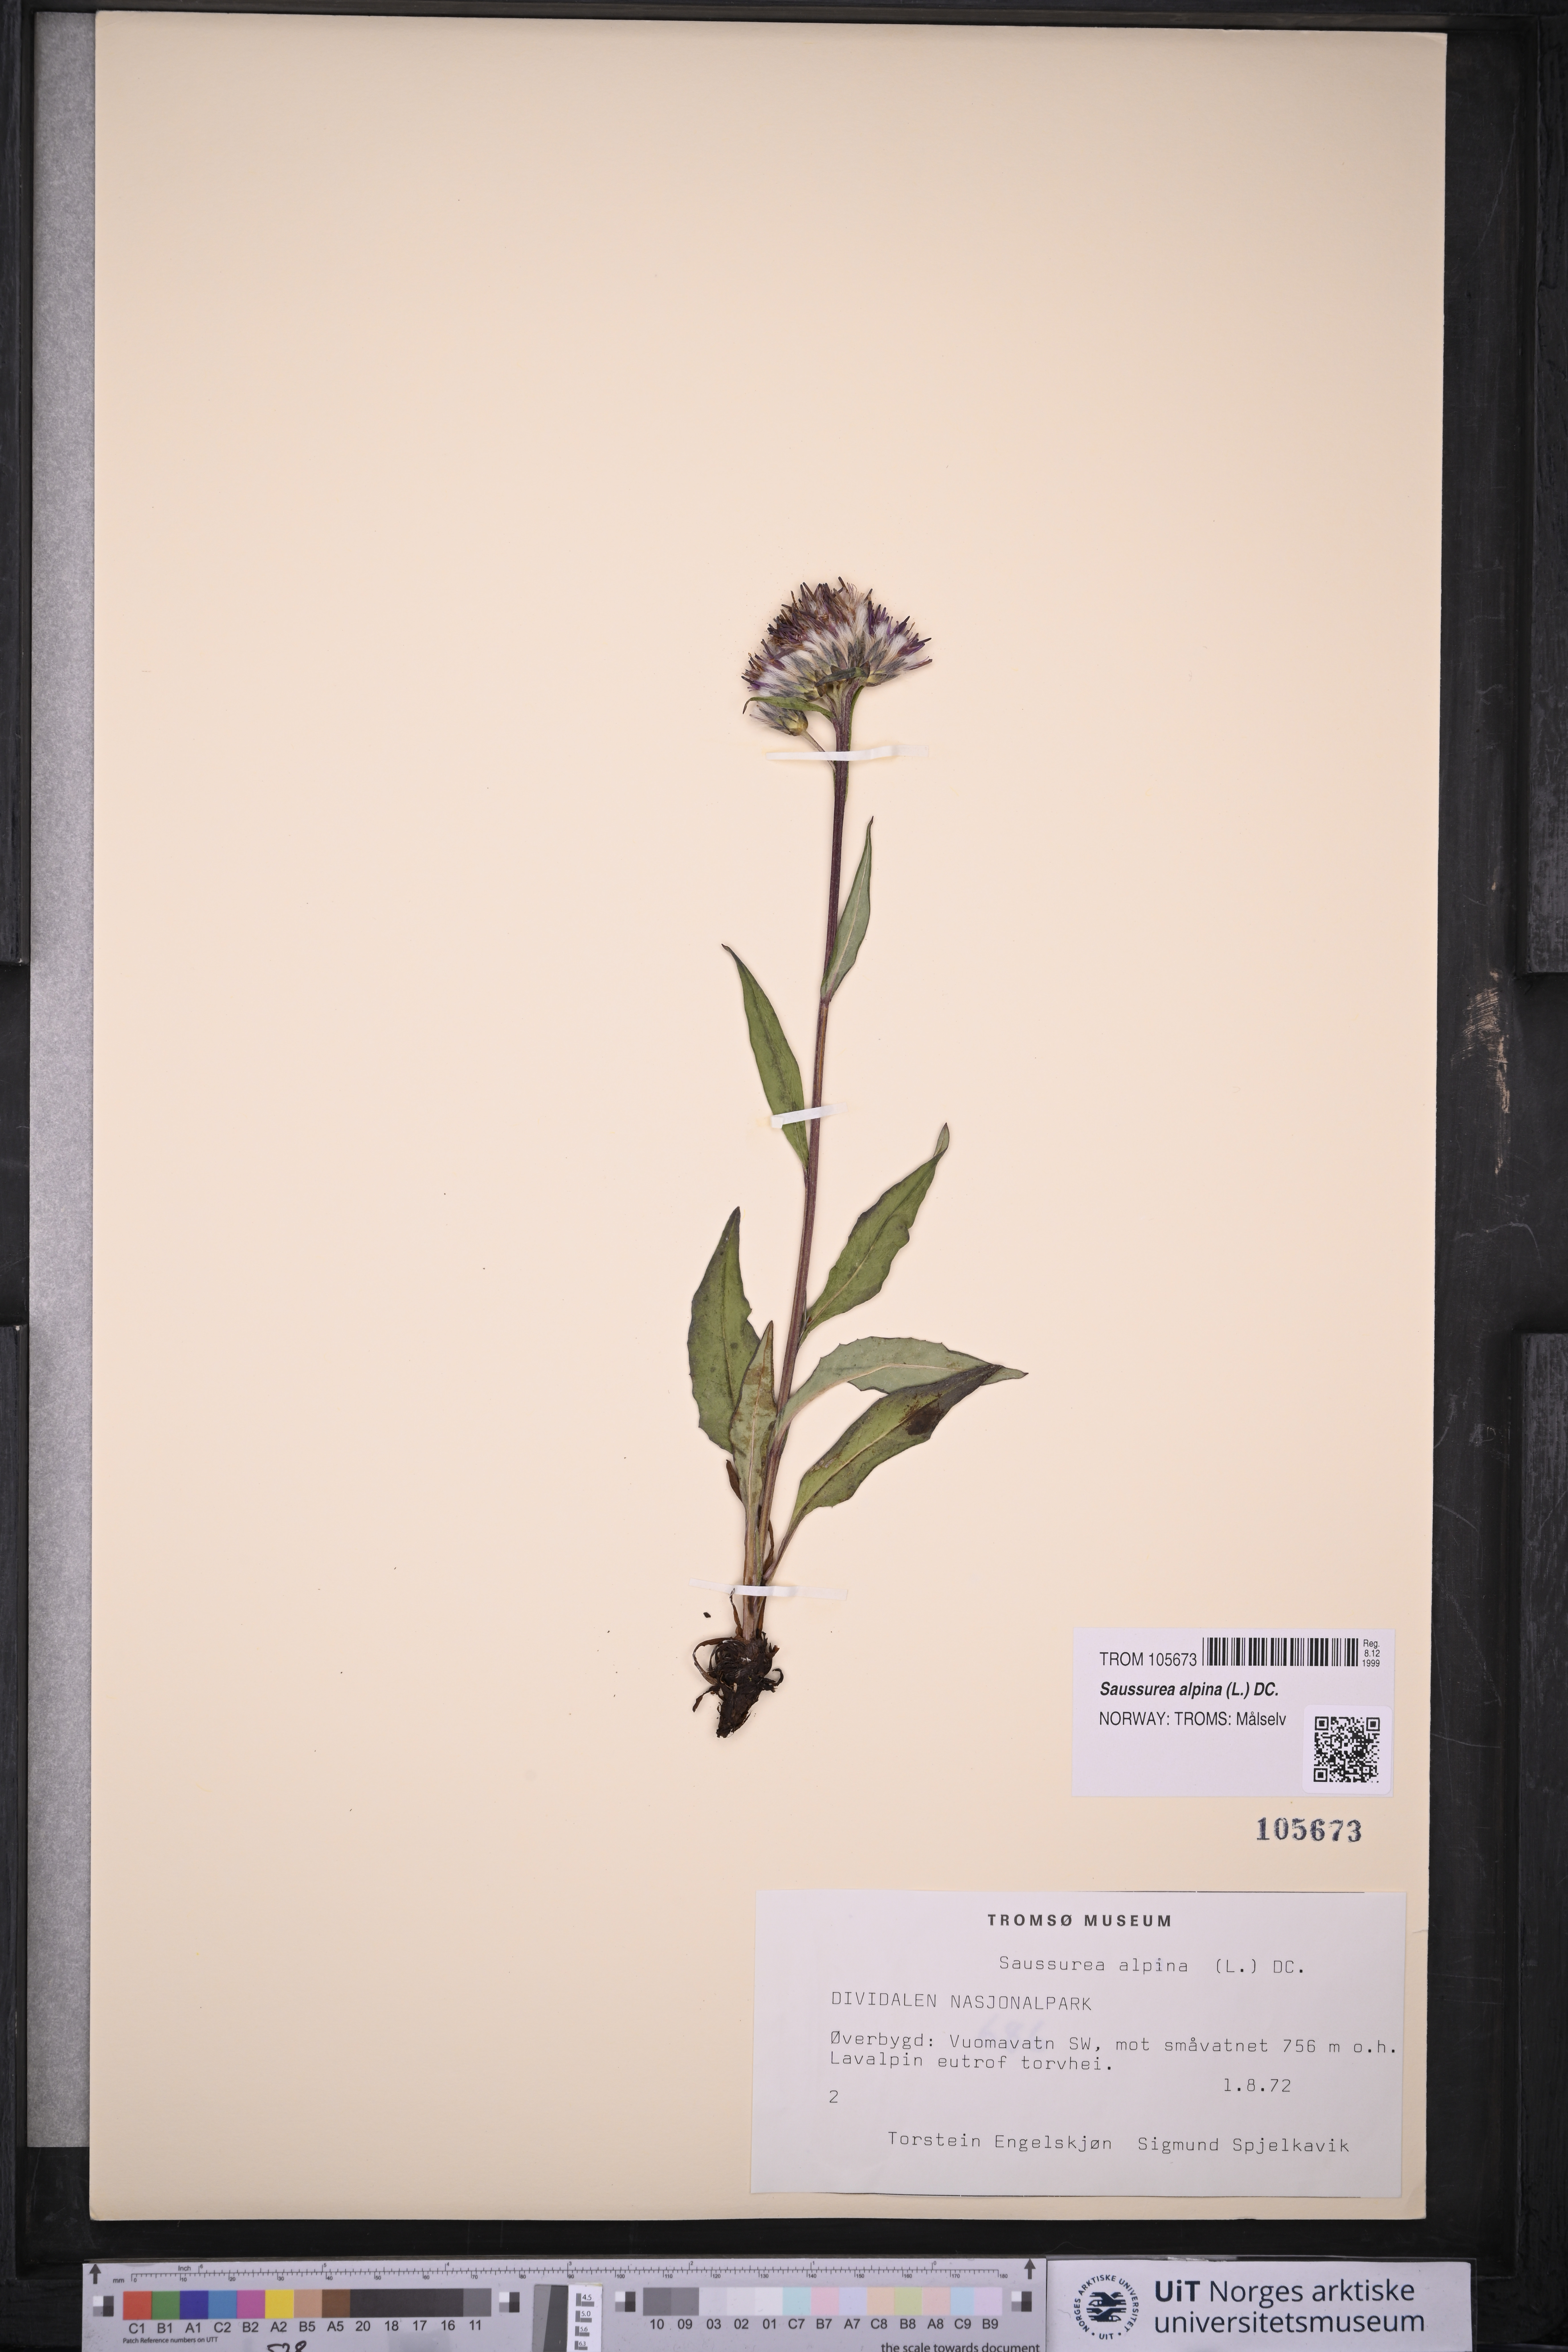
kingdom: Plantae
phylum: Tracheophyta
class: Magnoliopsida
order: Asterales
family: Asteraceae
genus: Saussurea
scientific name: Saussurea alpina
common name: Alpine saw-wort
